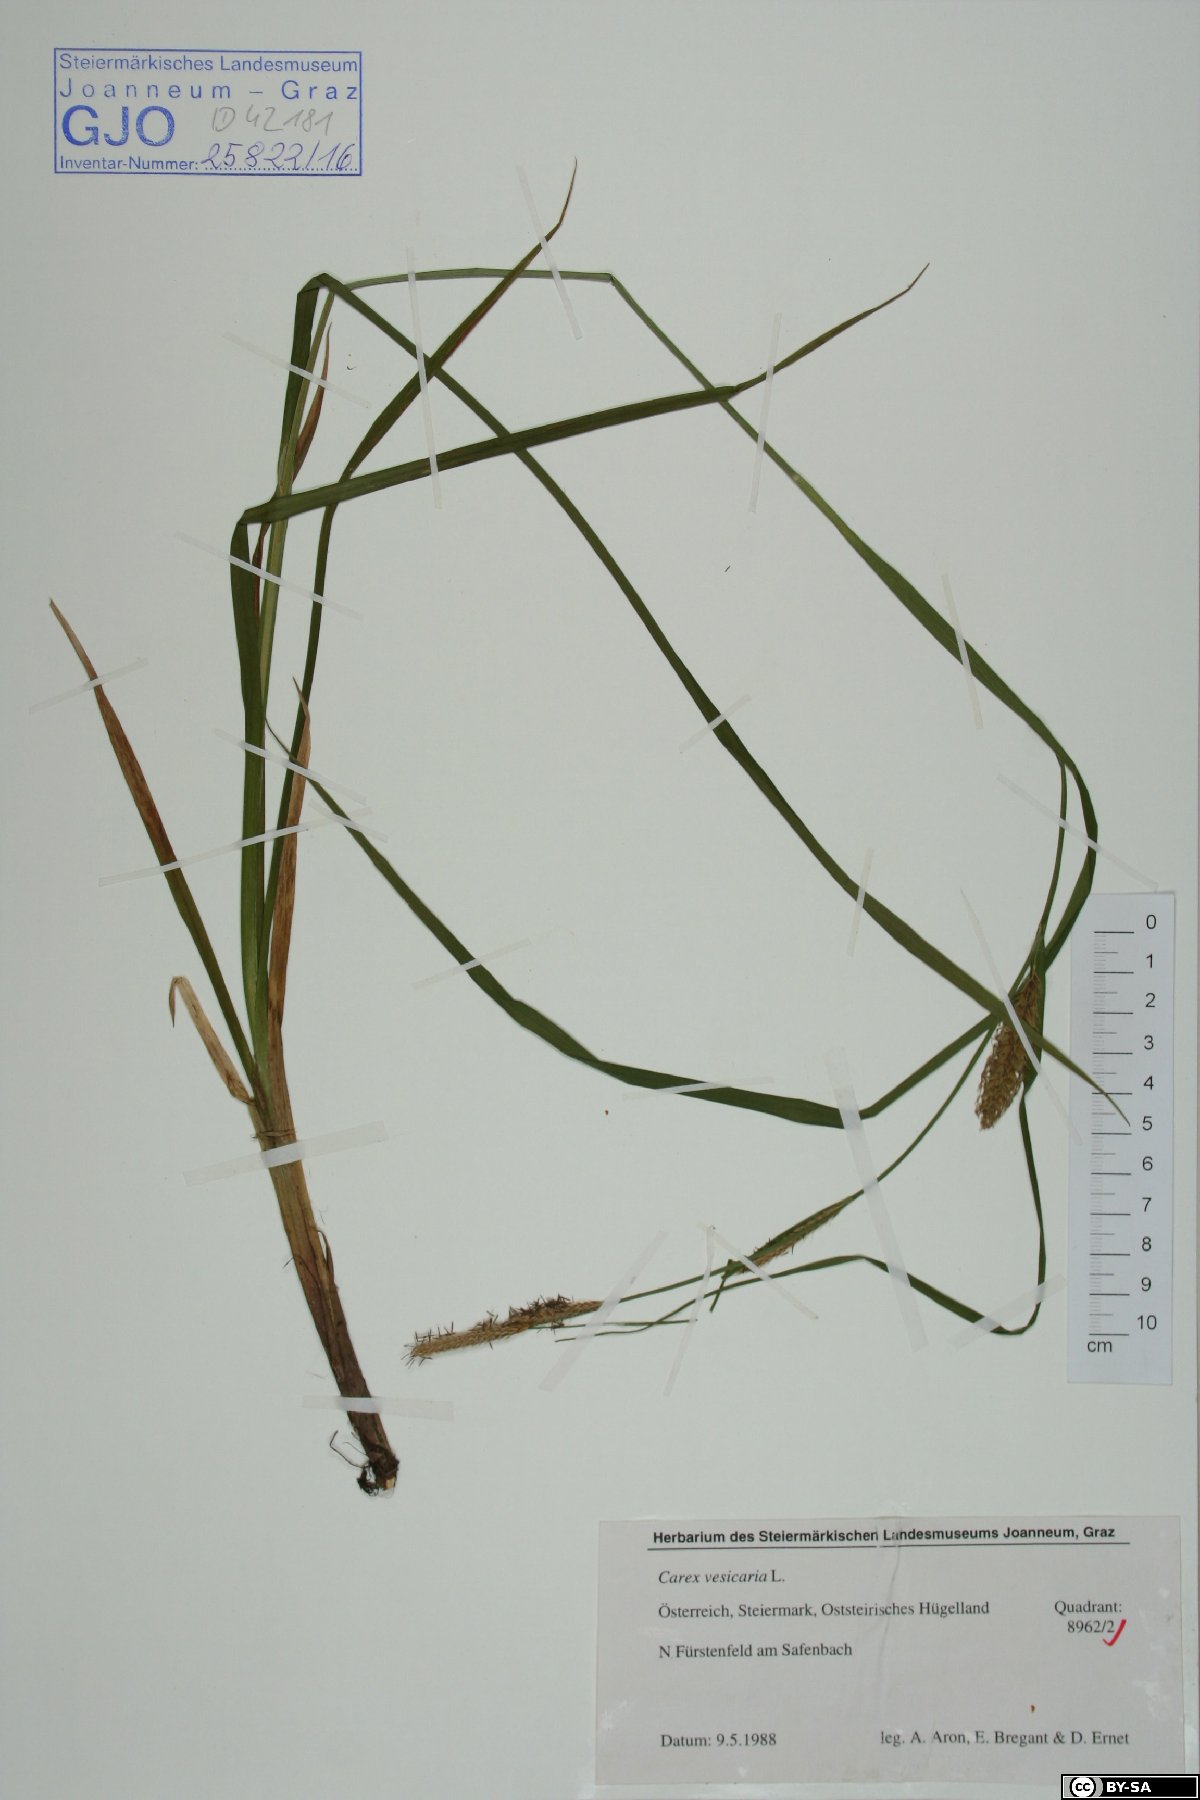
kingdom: Plantae
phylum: Tracheophyta
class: Liliopsida
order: Poales
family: Cyperaceae
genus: Carex
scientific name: Carex vesicaria
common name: Bladder-sedge
